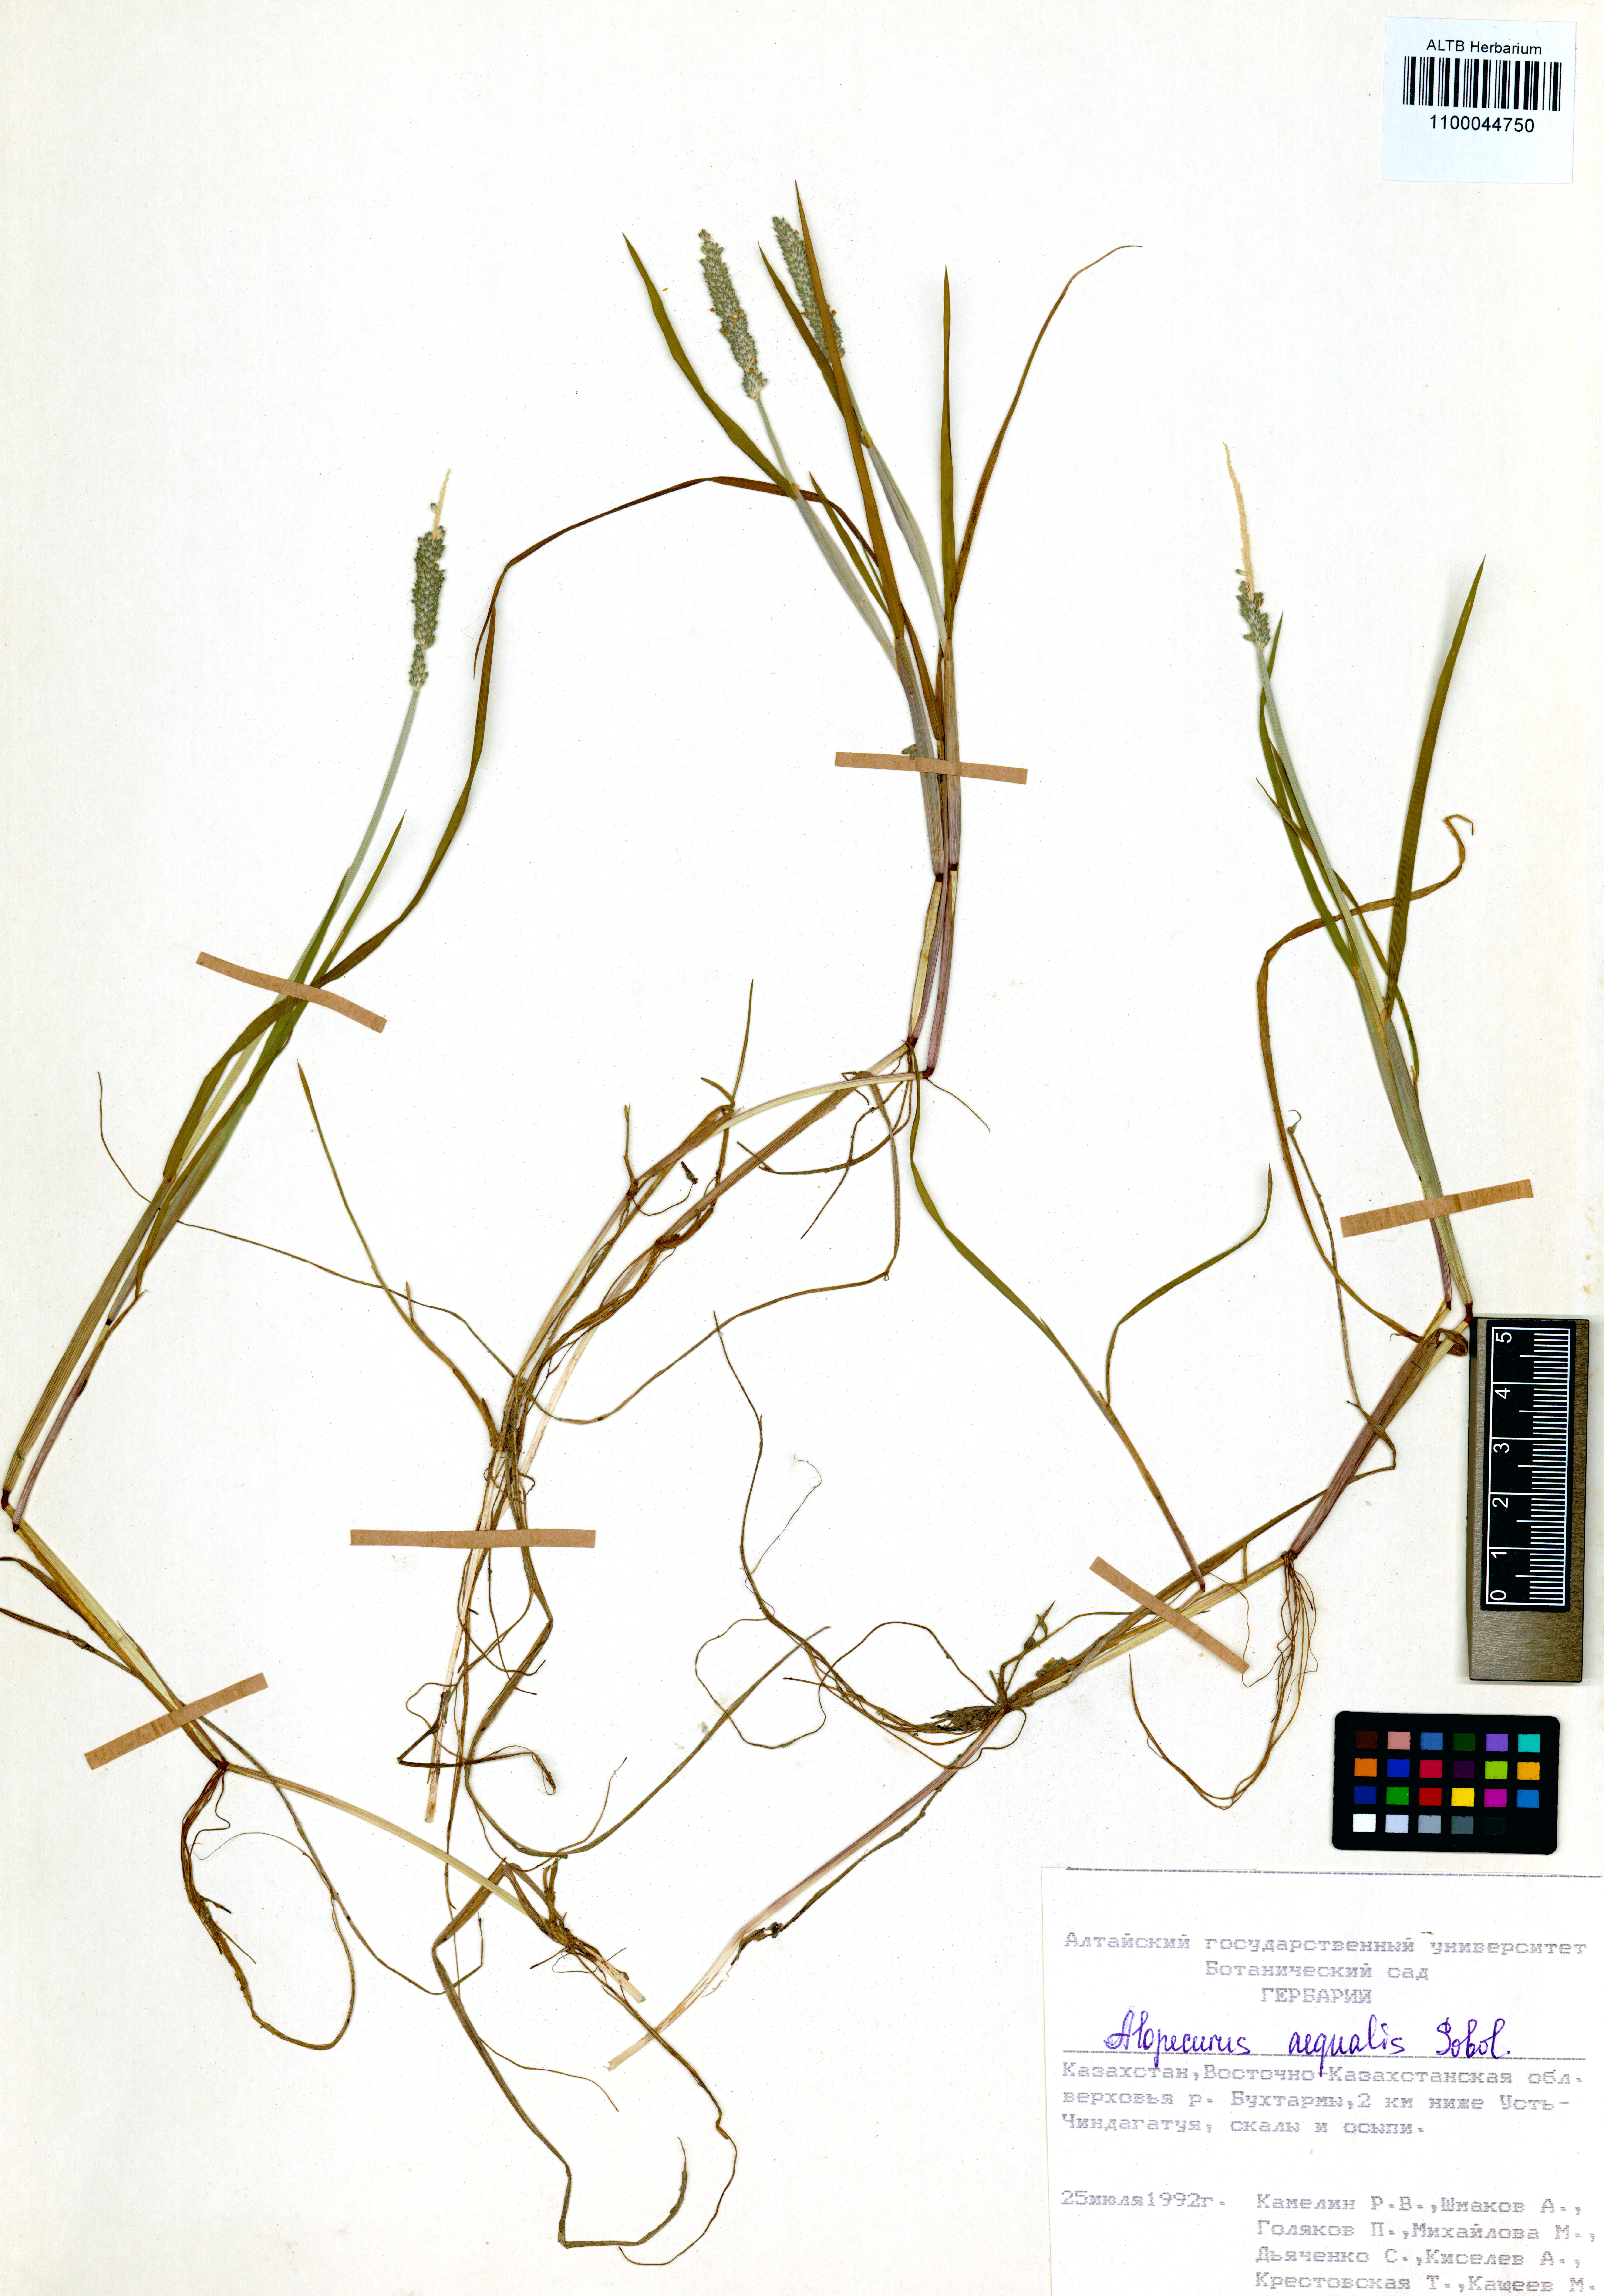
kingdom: Plantae
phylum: Tracheophyta
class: Liliopsida
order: Poales
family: Poaceae
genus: Alopecurus
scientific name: Alopecurus aequalis
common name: Orange foxtail
